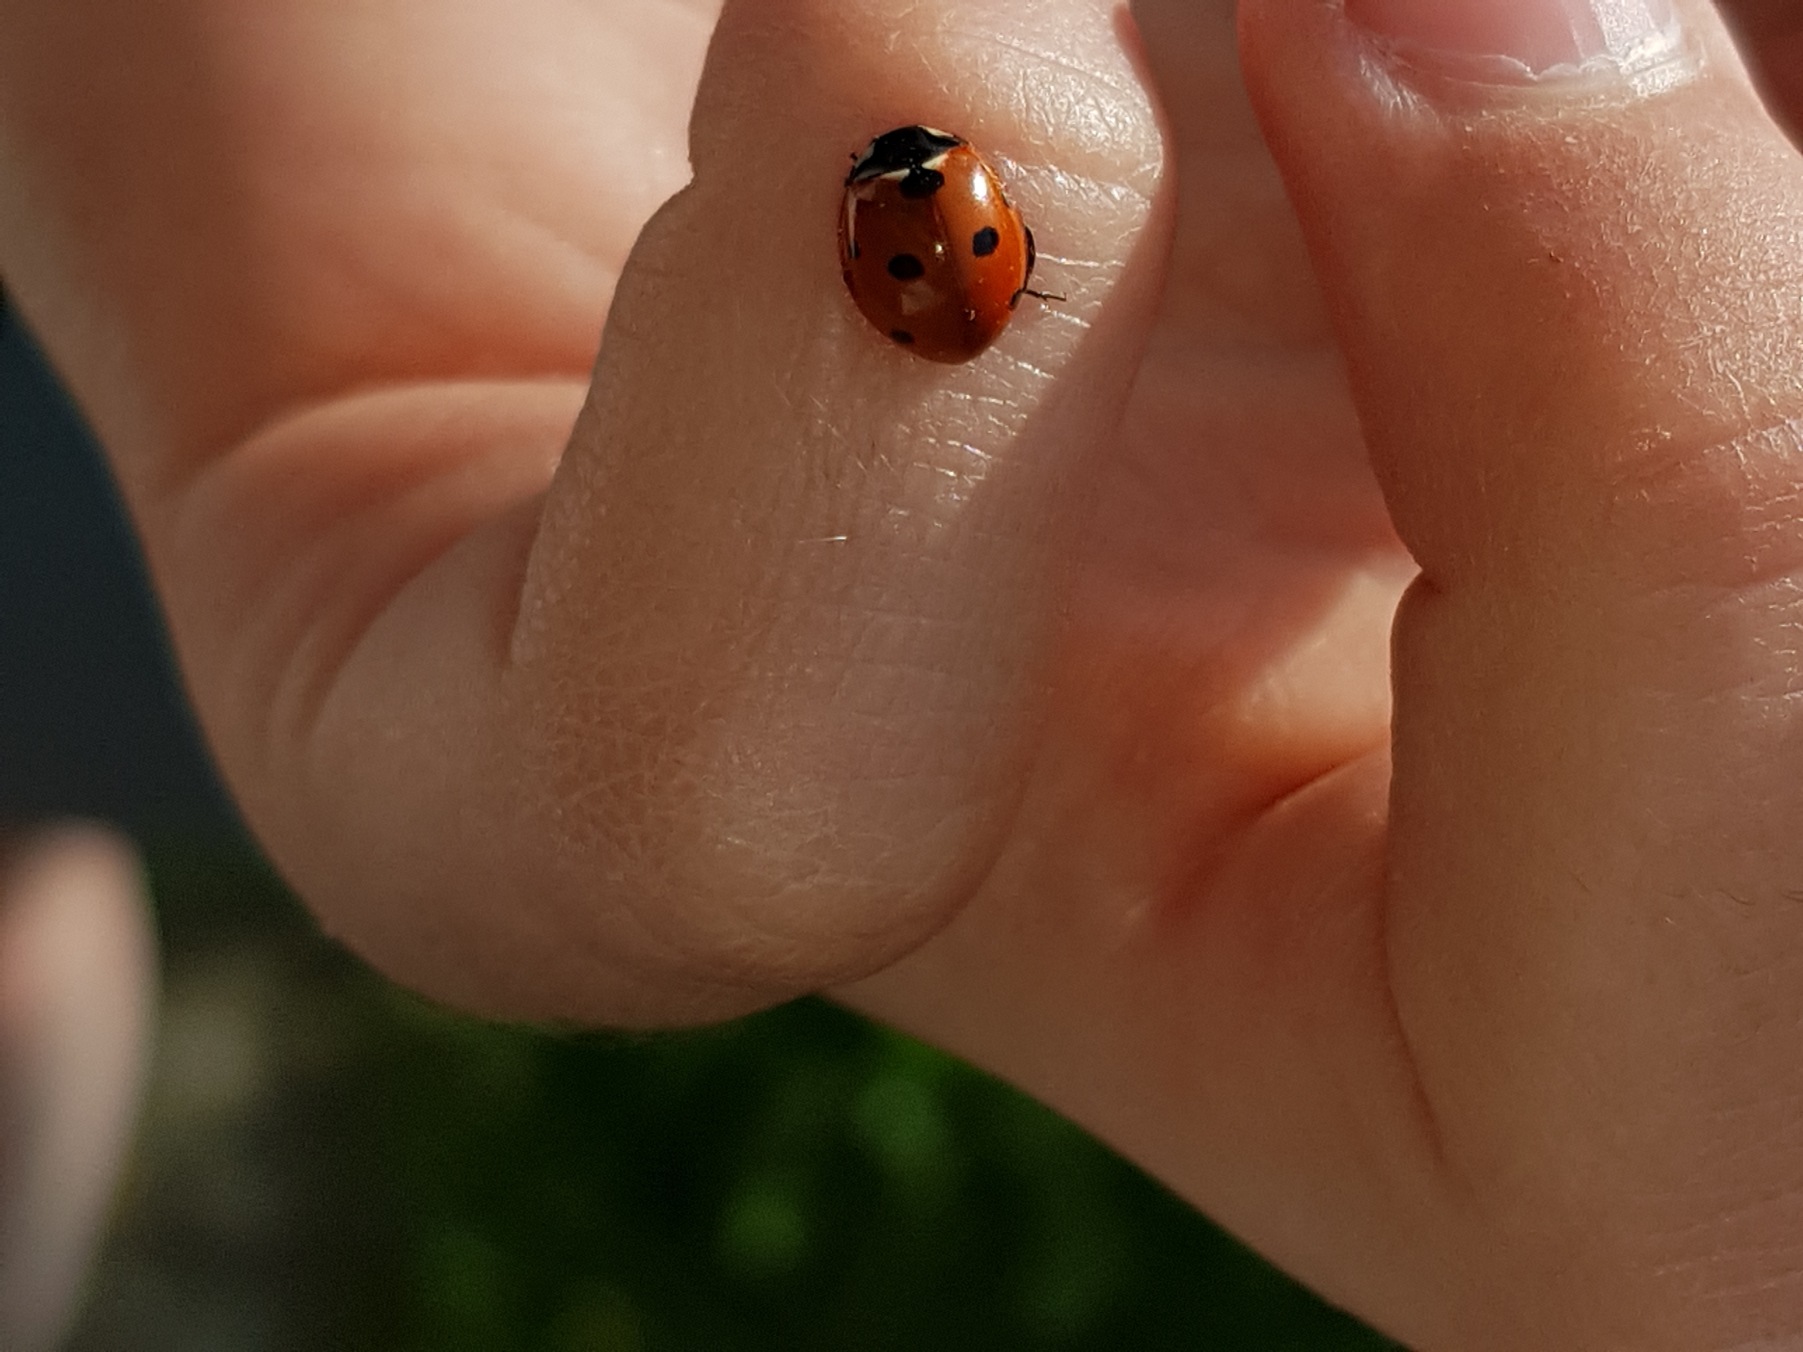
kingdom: Animalia
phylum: Arthropoda
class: Insecta
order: Coleoptera
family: Coccinellidae
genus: Coccinella
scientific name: Coccinella septempunctata
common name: Syvplettet mariehøne
